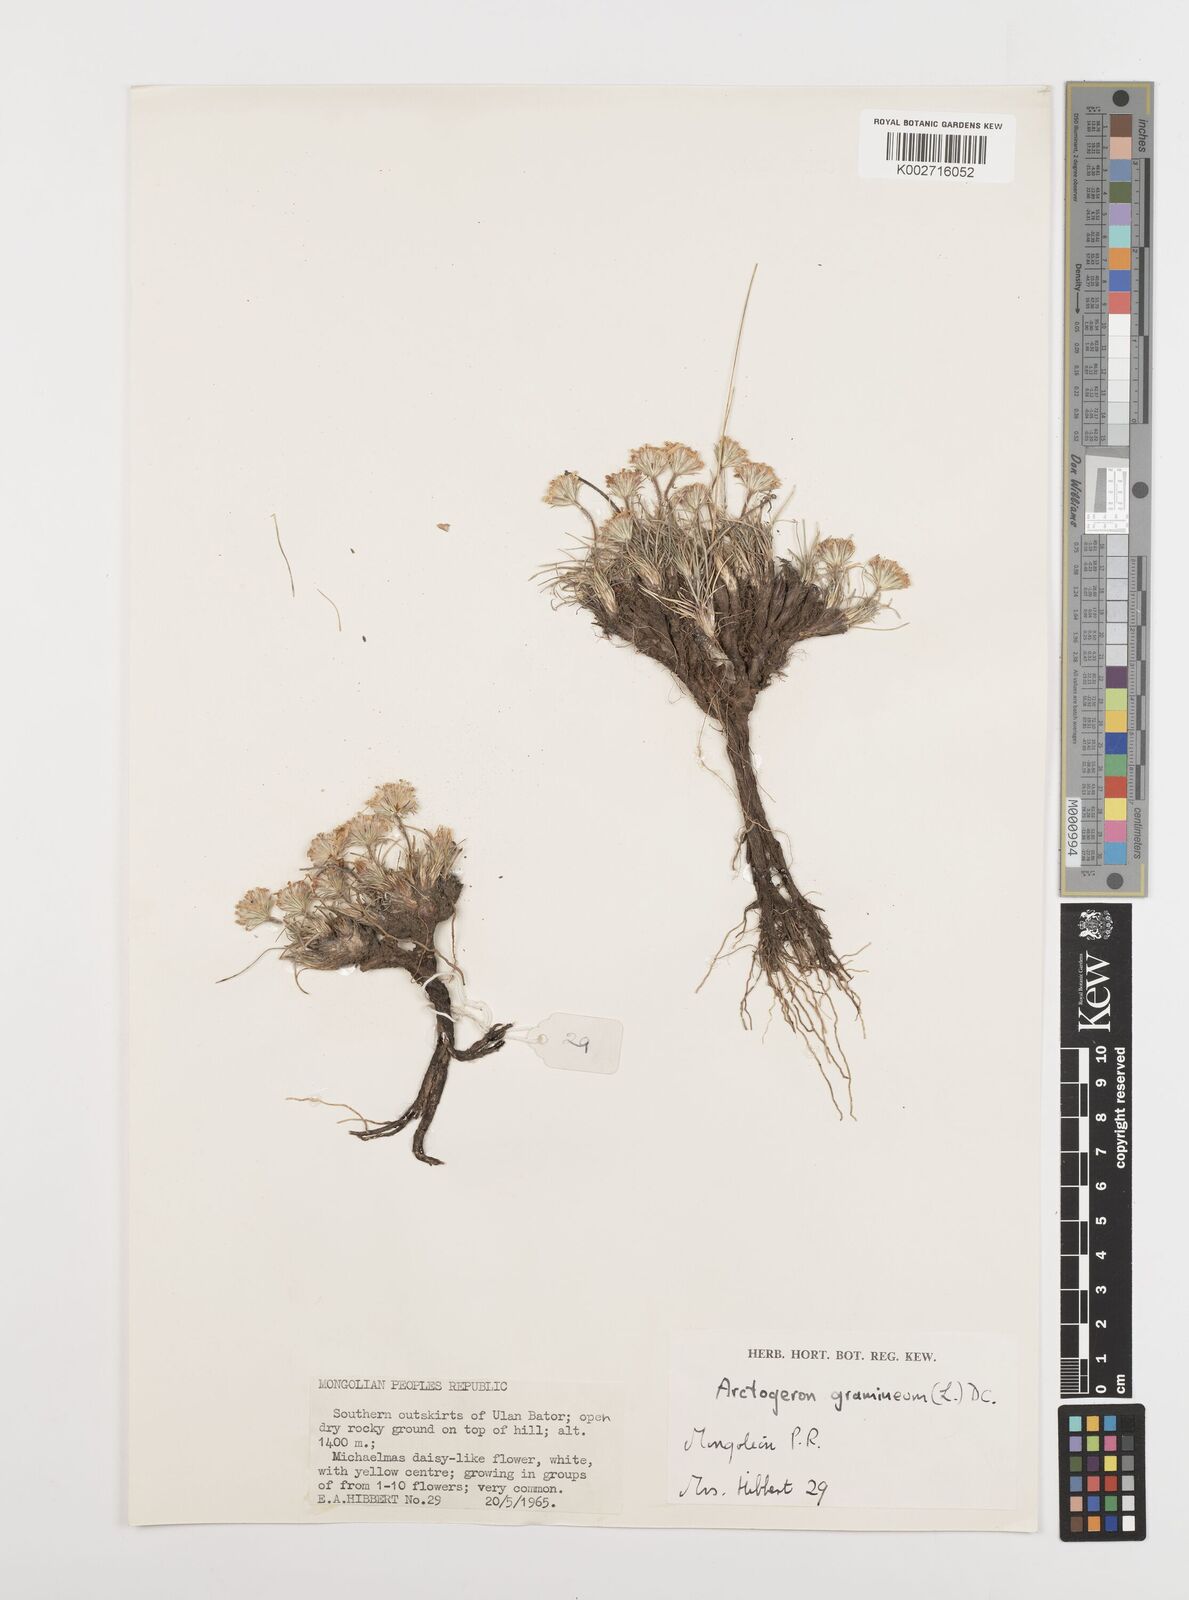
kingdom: Plantae
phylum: Tracheophyta
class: Magnoliopsida
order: Asterales
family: Asteraceae
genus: Arctogeron
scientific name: Arctogeron gramineum
